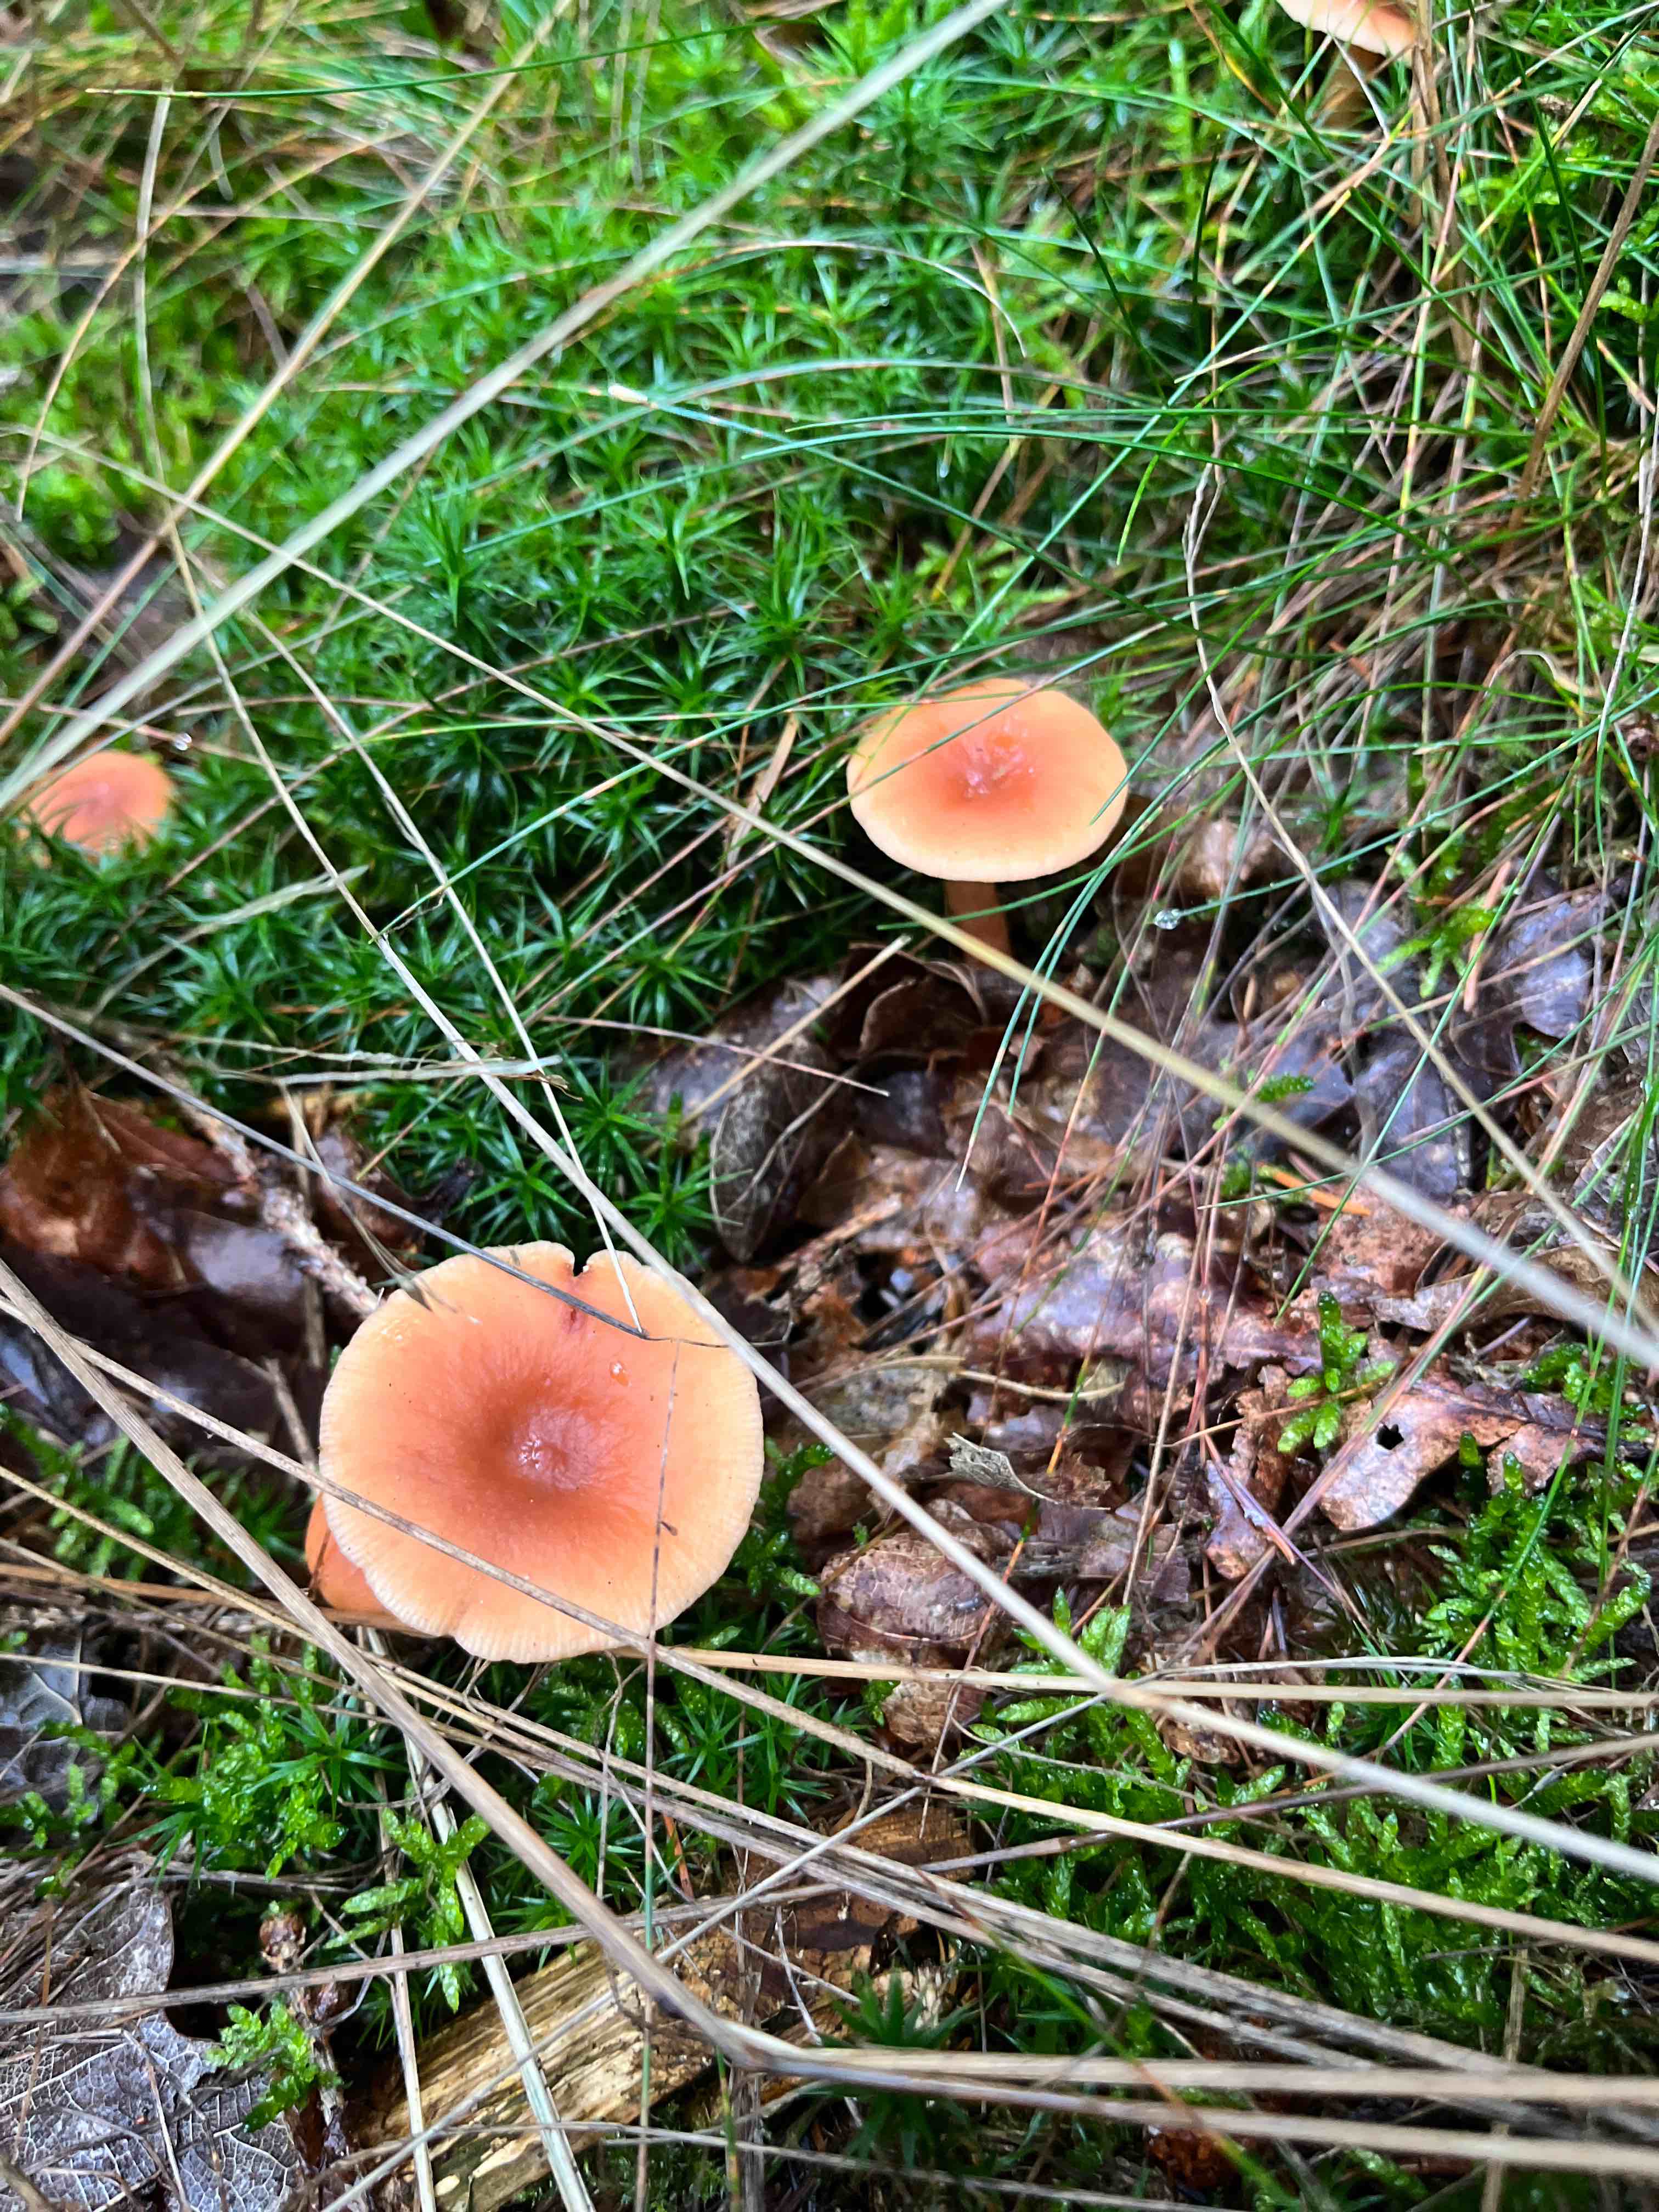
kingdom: Fungi
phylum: Basidiomycota
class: Agaricomycetes
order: Russulales
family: Russulaceae
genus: Lactarius
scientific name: Lactarius tabidus
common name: rynket mælkehat
